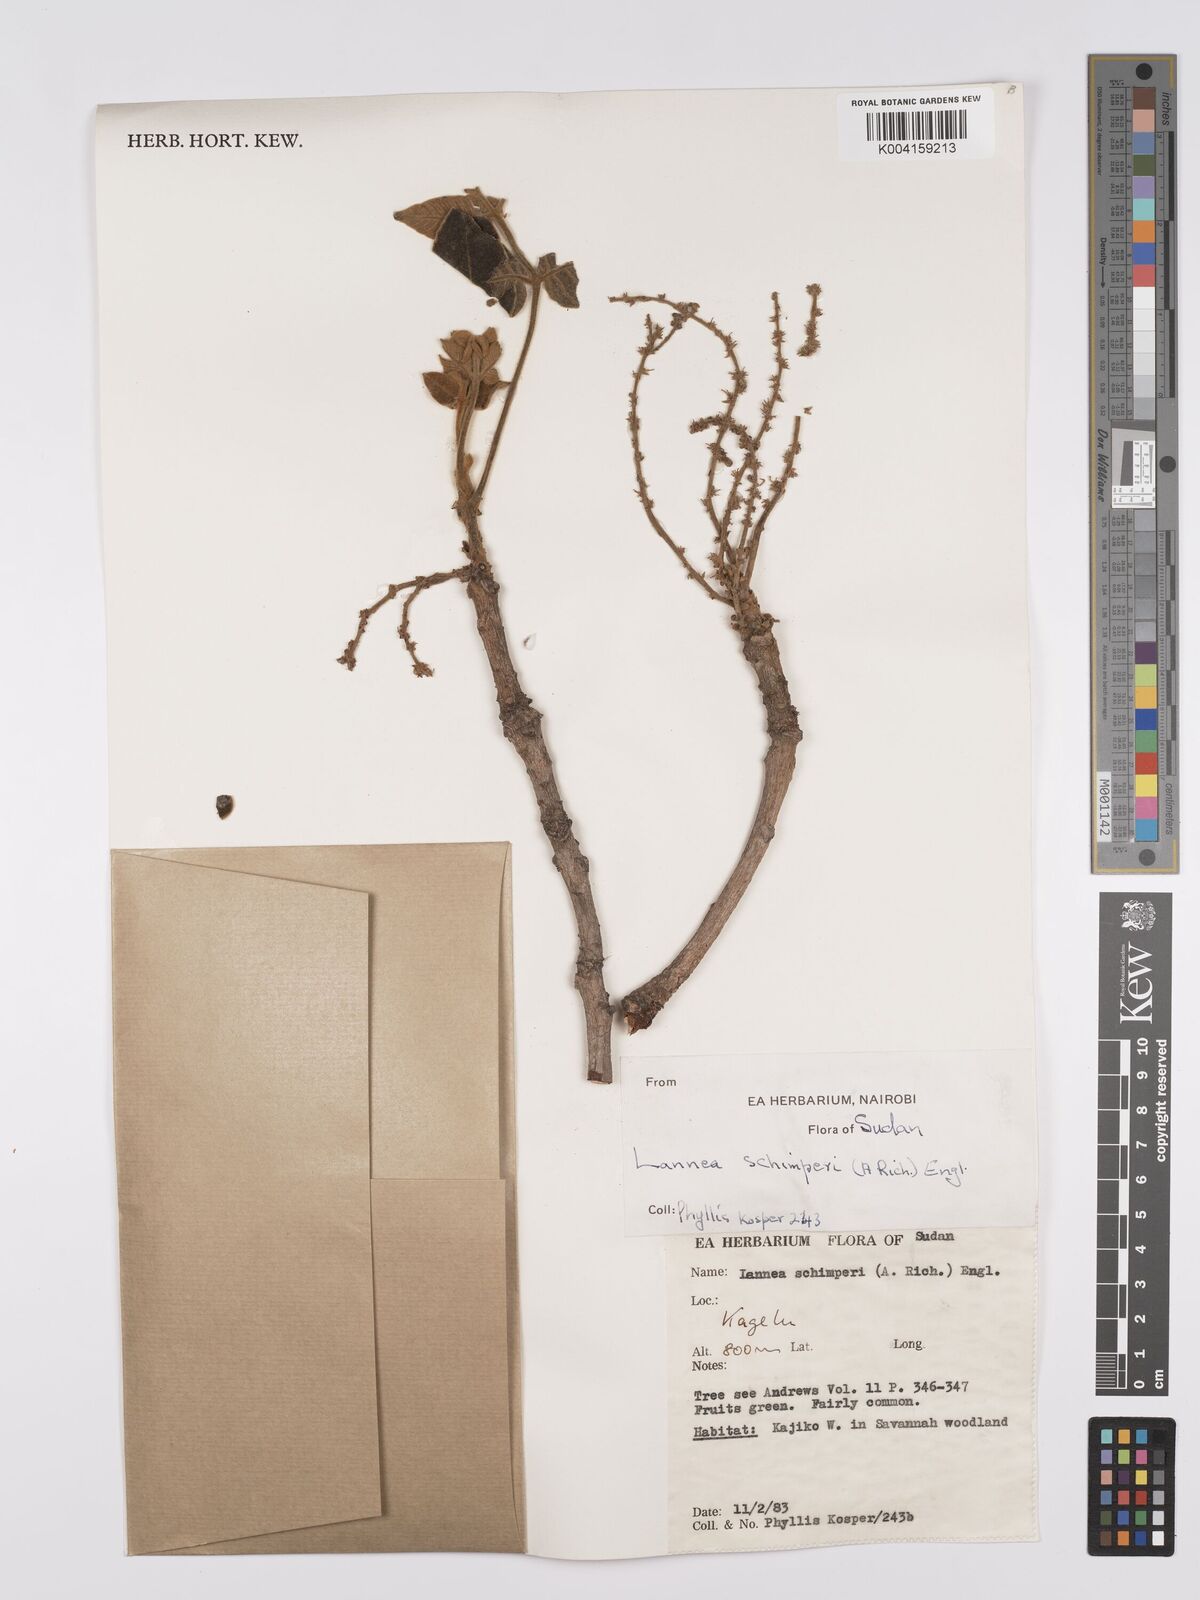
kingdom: Plantae
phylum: Tracheophyta
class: Magnoliopsida
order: Sapindales
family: Anacardiaceae
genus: Lannea
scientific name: Lannea schimperi
